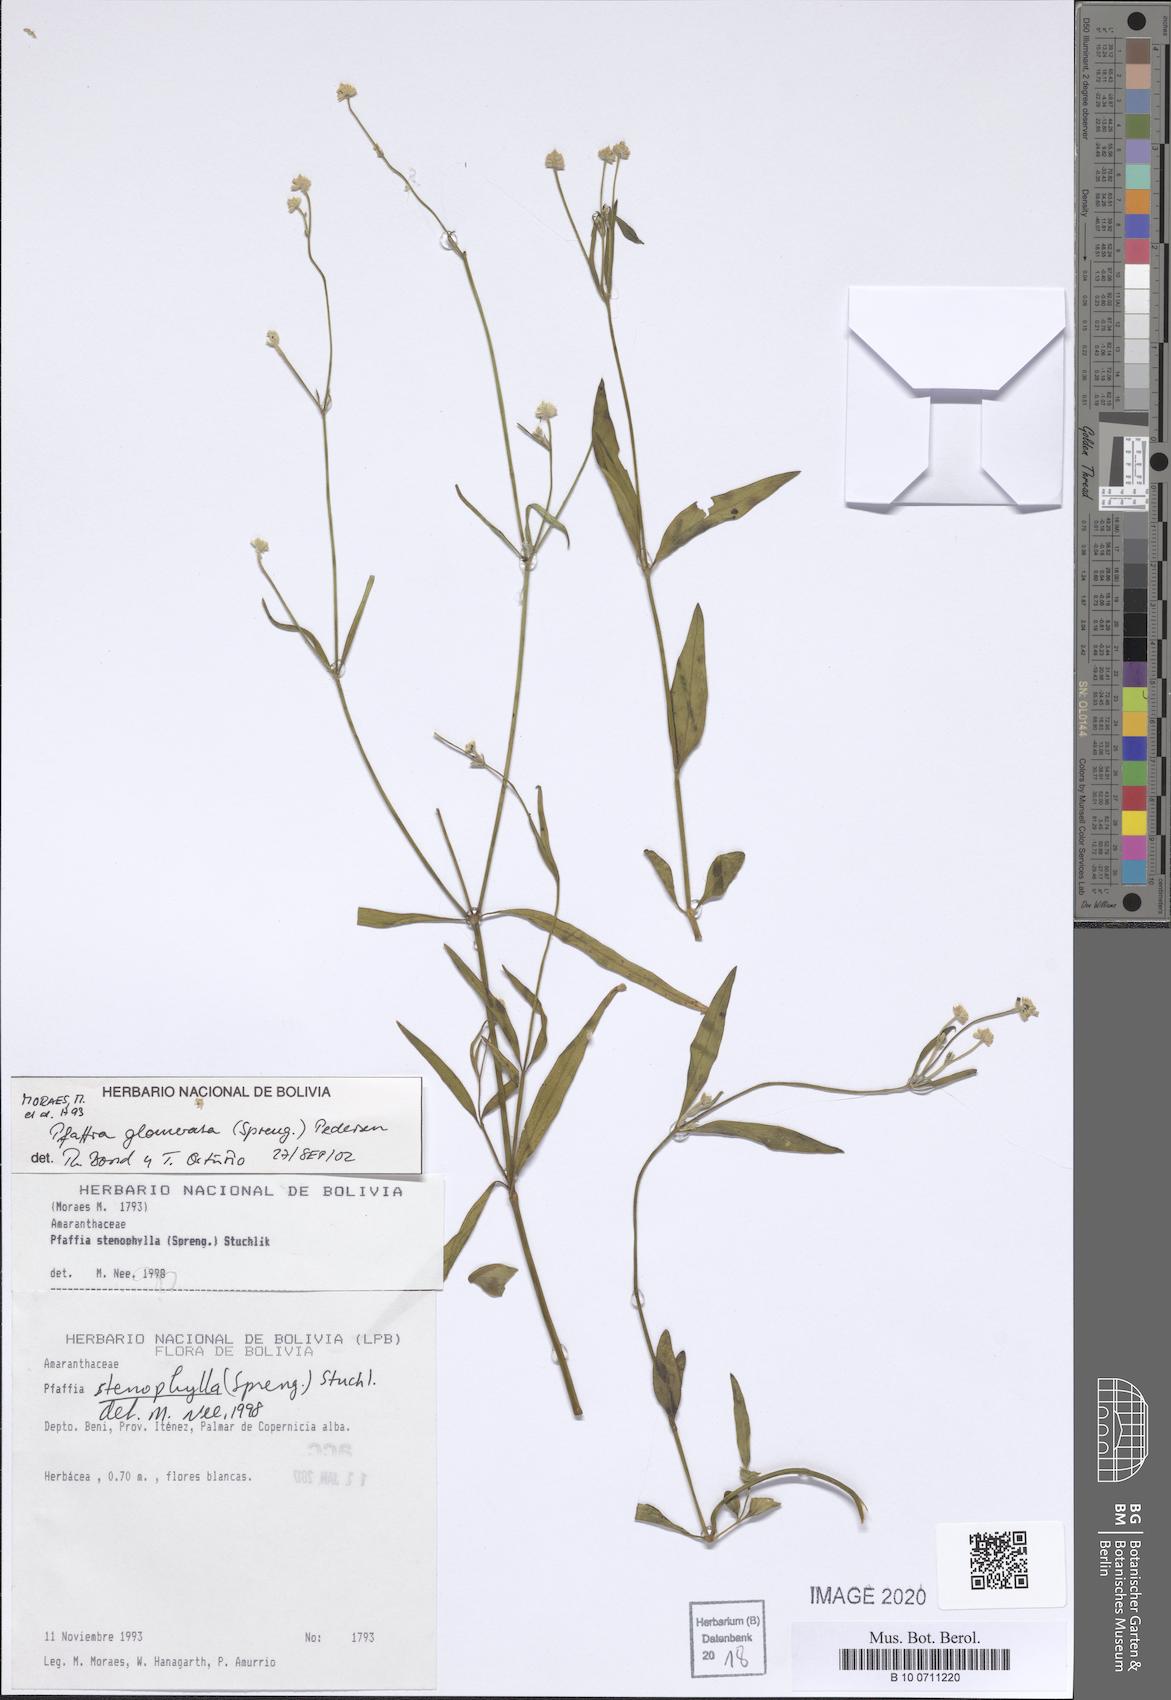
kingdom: Plantae
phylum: Tracheophyta
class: Magnoliopsida
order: Caryophyllales
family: Amaranthaceae
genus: Pfaffia
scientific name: Pfaffia glomerata
